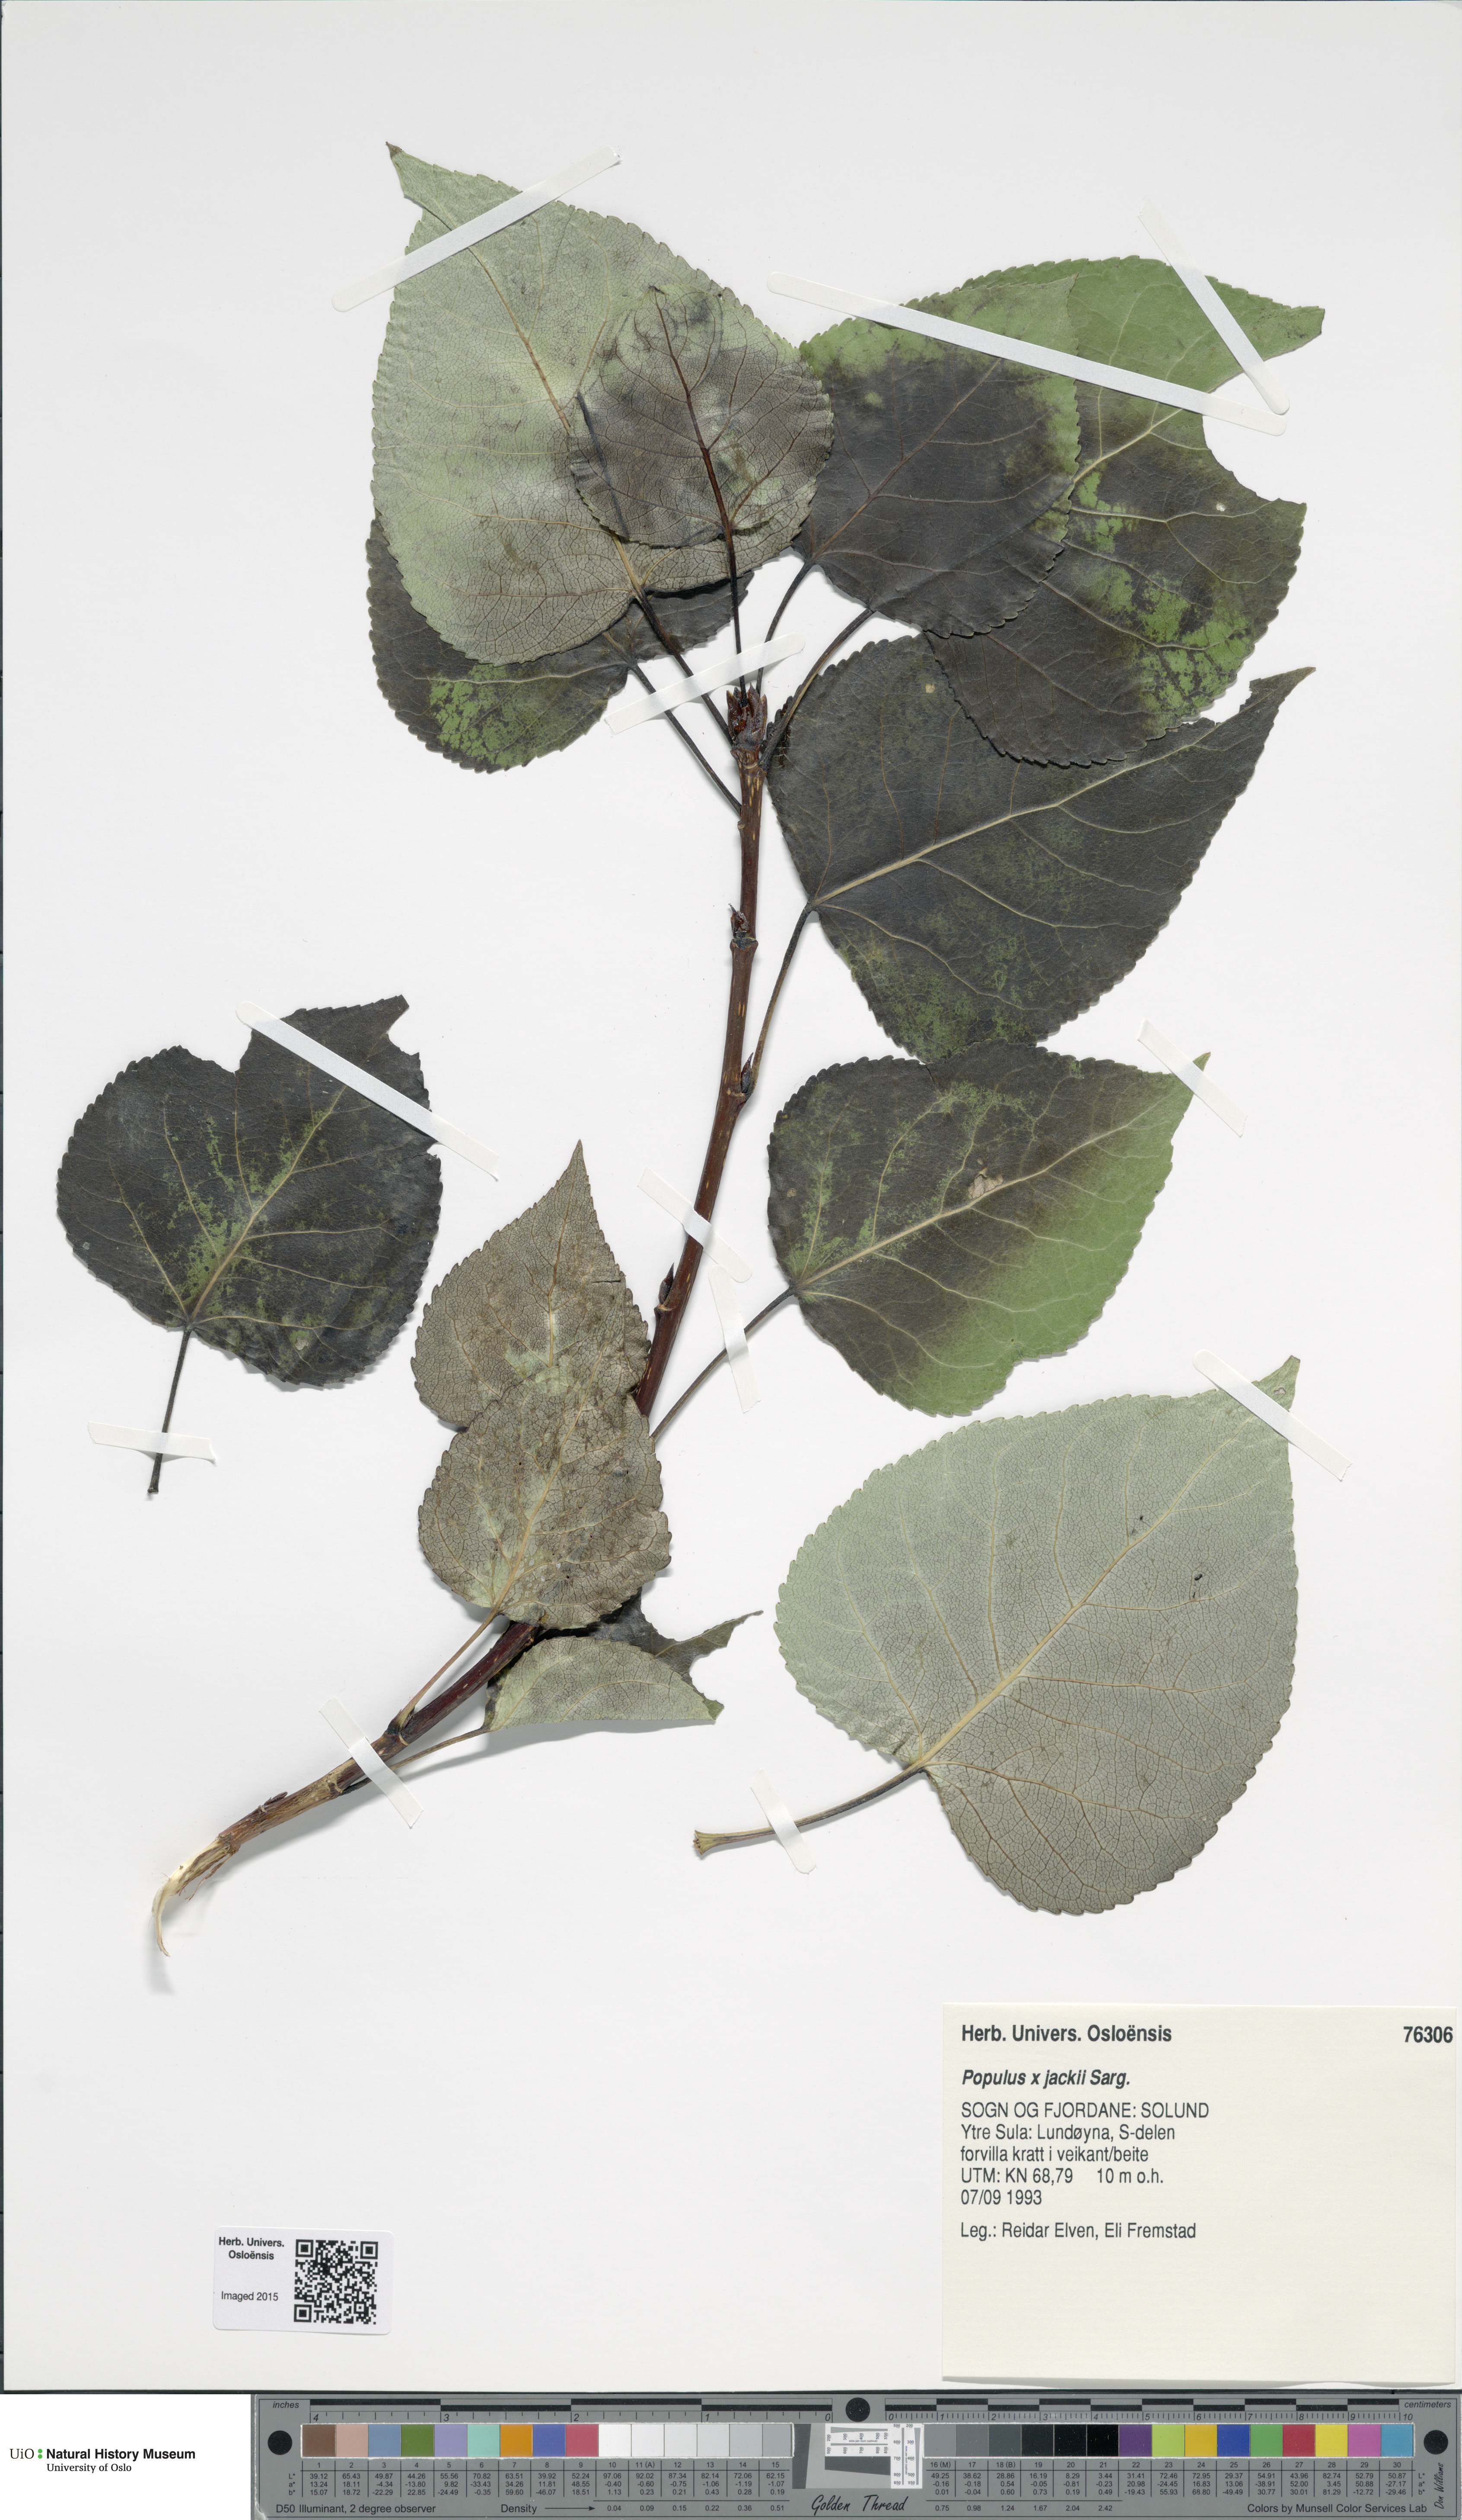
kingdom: Plantae
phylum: Tracheophyta
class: Magnoliopsida
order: Malpighiales
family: Salicaceae
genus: Populus
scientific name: Populus jackii
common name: Balm-of-gilead
